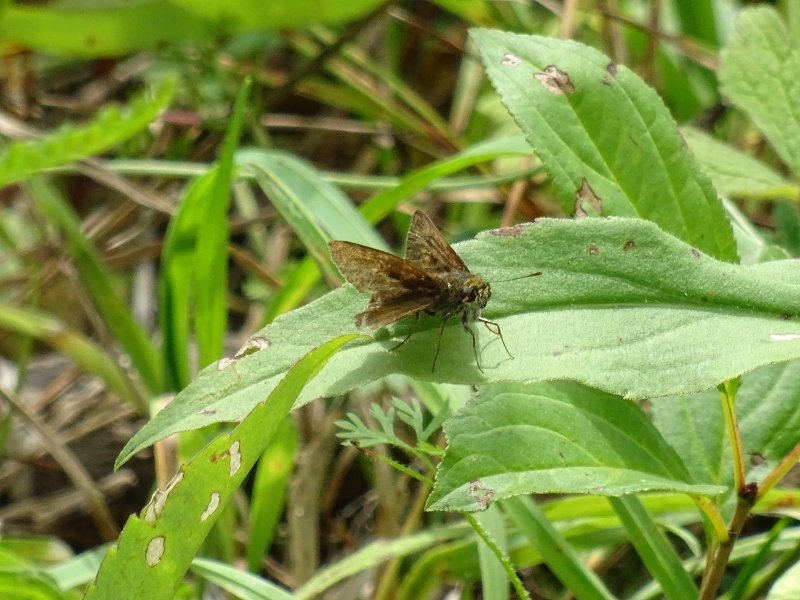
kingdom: Animalia
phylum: Arthropoda
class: Insecta
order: Lepidoptera
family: Hesperiidae
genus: Euphyes
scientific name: Euphyes vestris
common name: Dun Skipper
